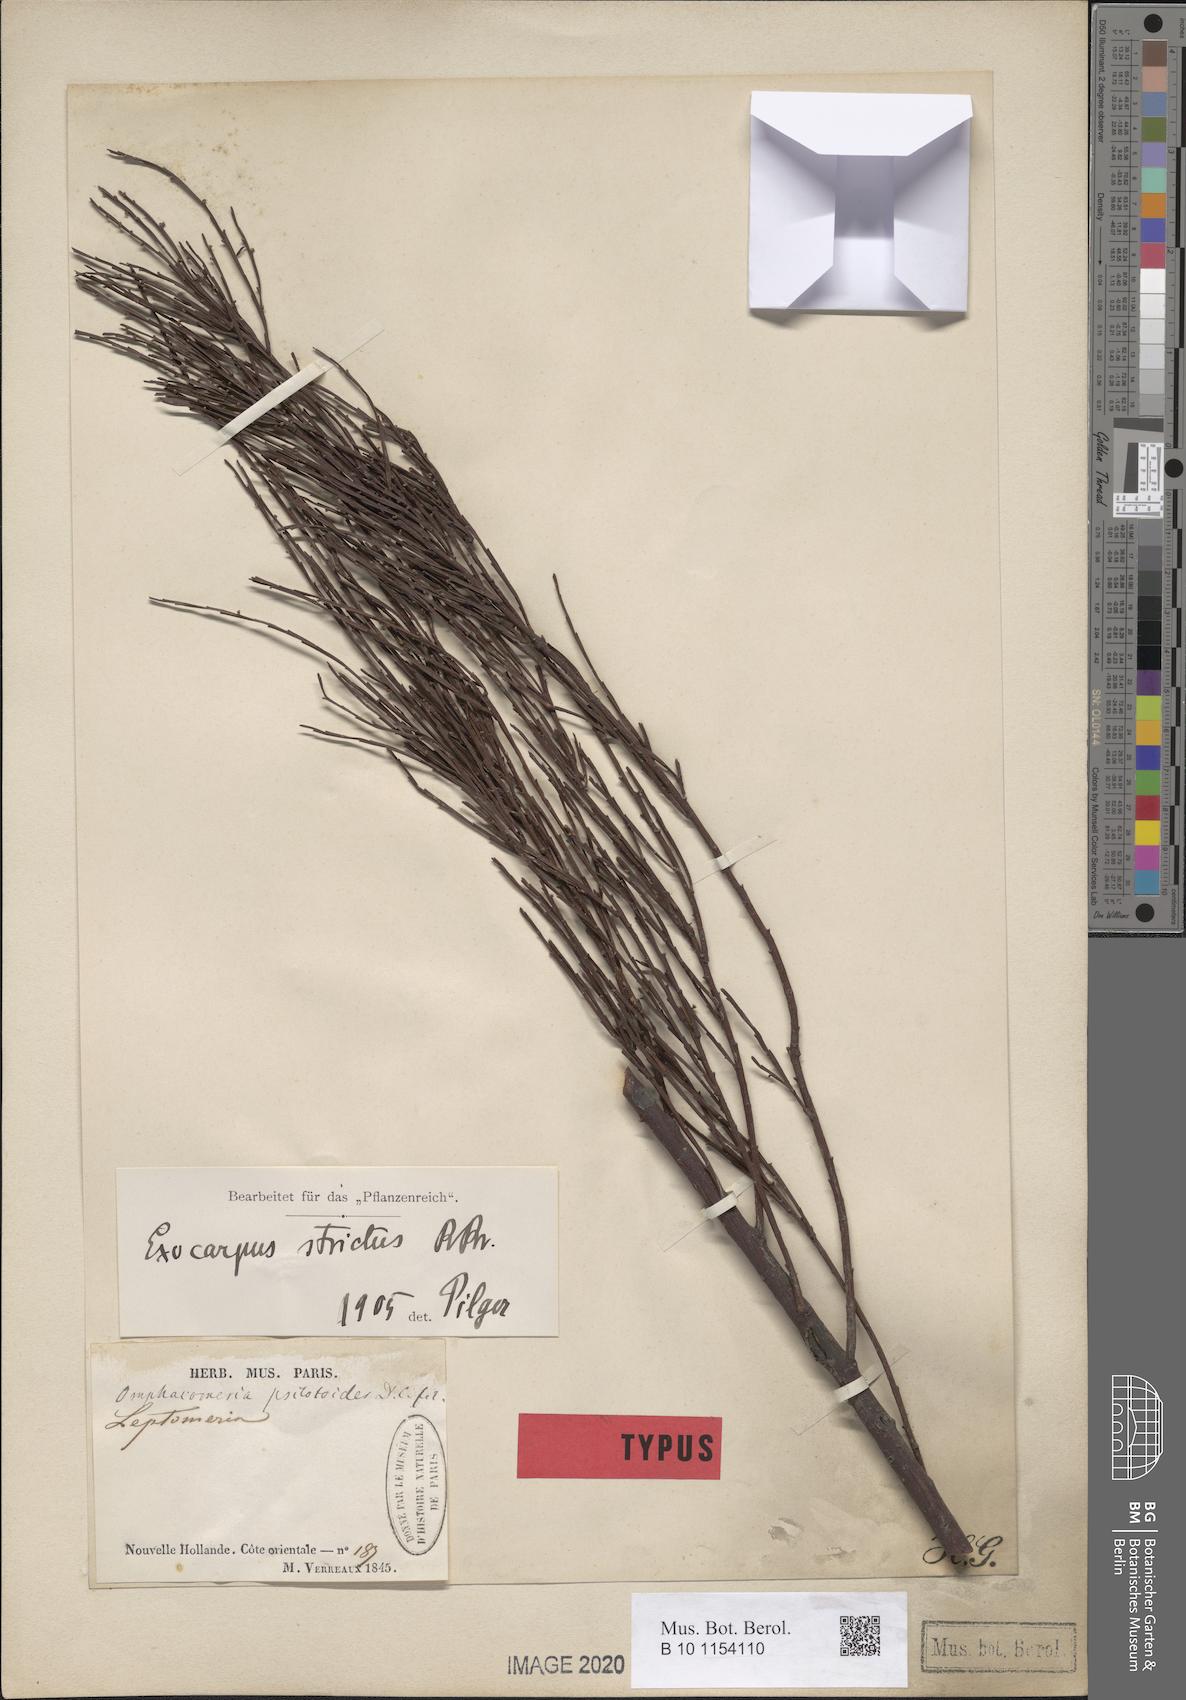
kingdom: Plantae
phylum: Tracheophyta
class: Magnoliopsida
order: Santalales
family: Santalaceae
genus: Exocarpos
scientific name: Exocarpos strictus
